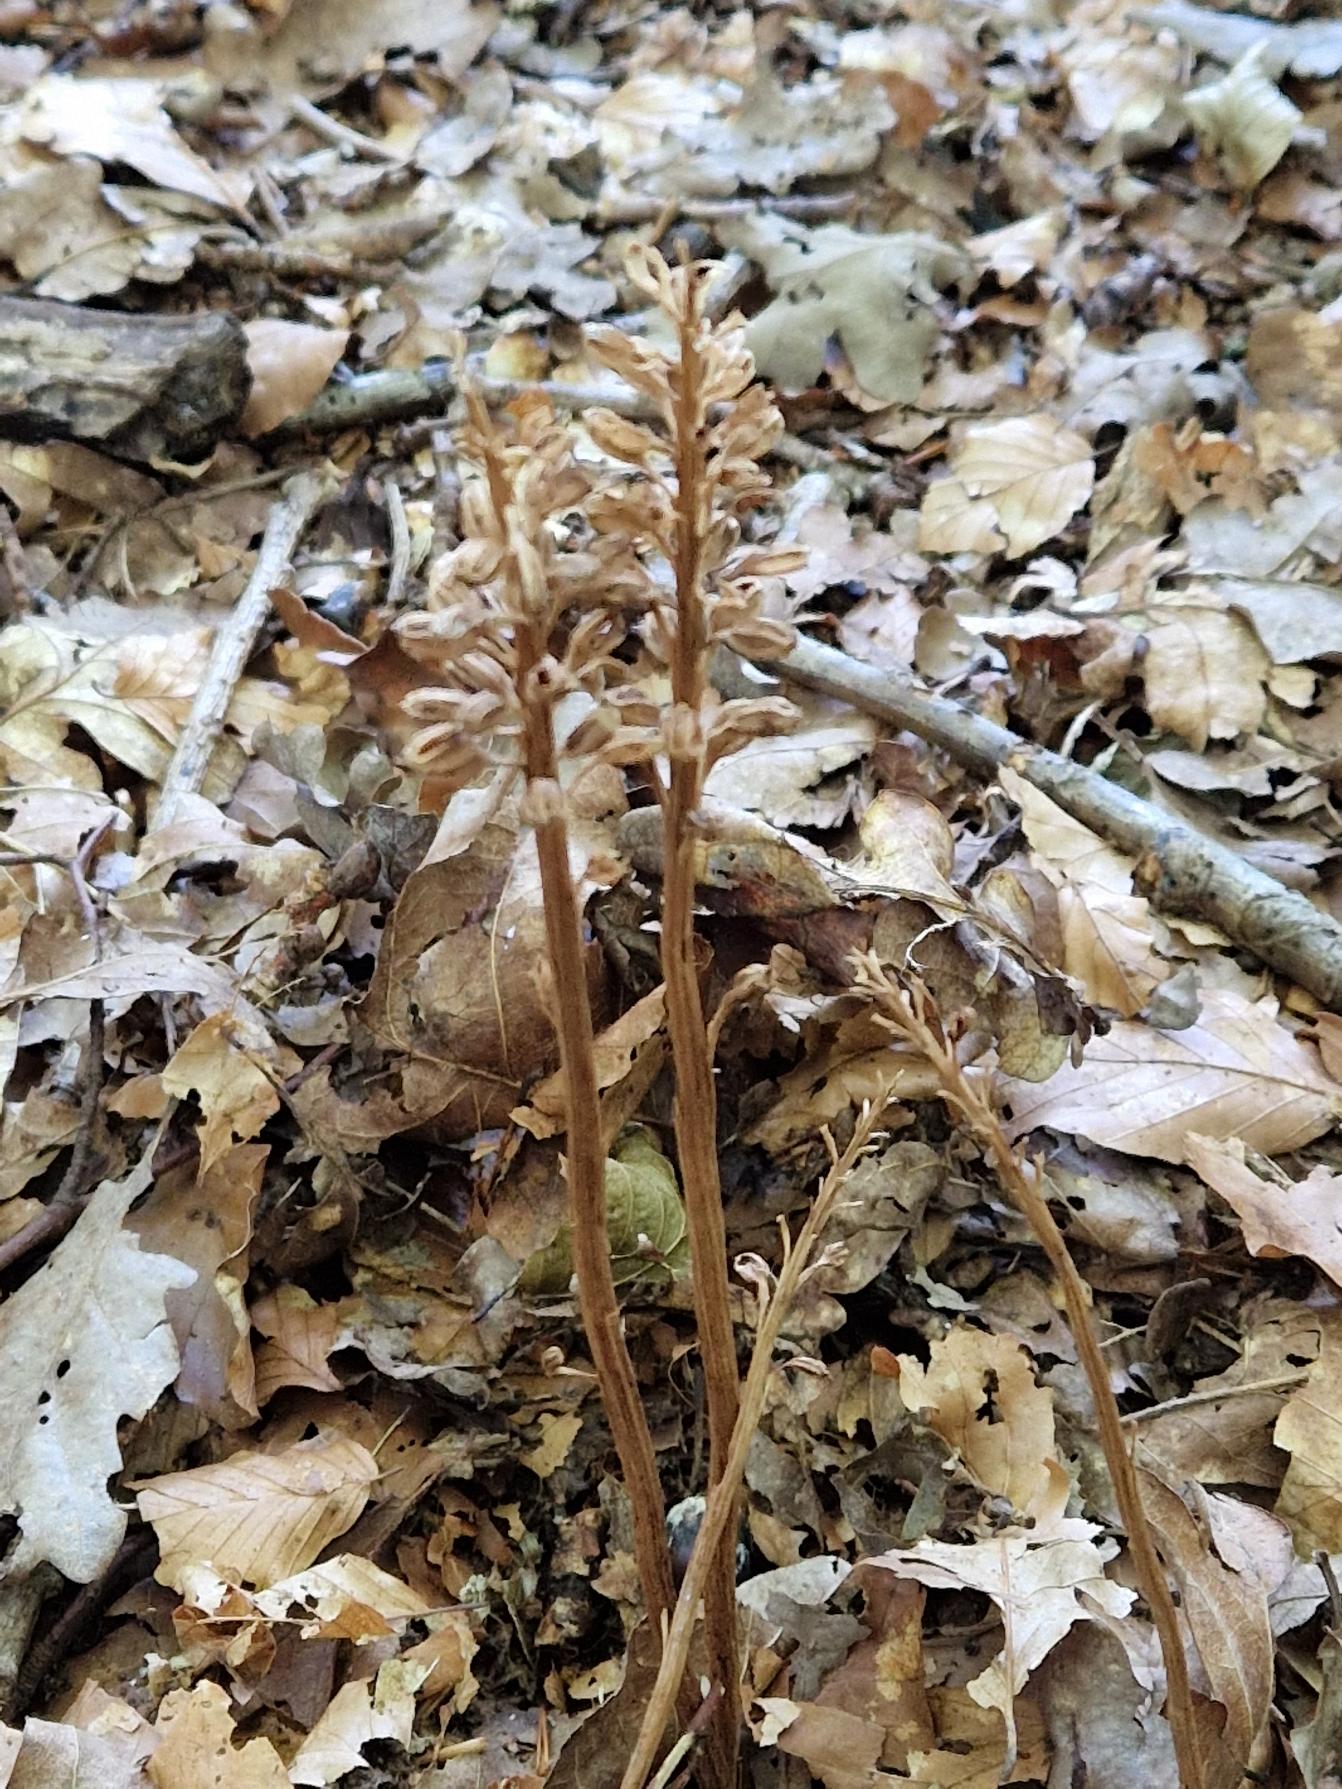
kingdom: Plantae
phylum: Tracheophyta
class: Liliopsida
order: Asparagales
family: Orchidaceae
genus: Neottia
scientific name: Neottia nidus-avis
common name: Rederod
